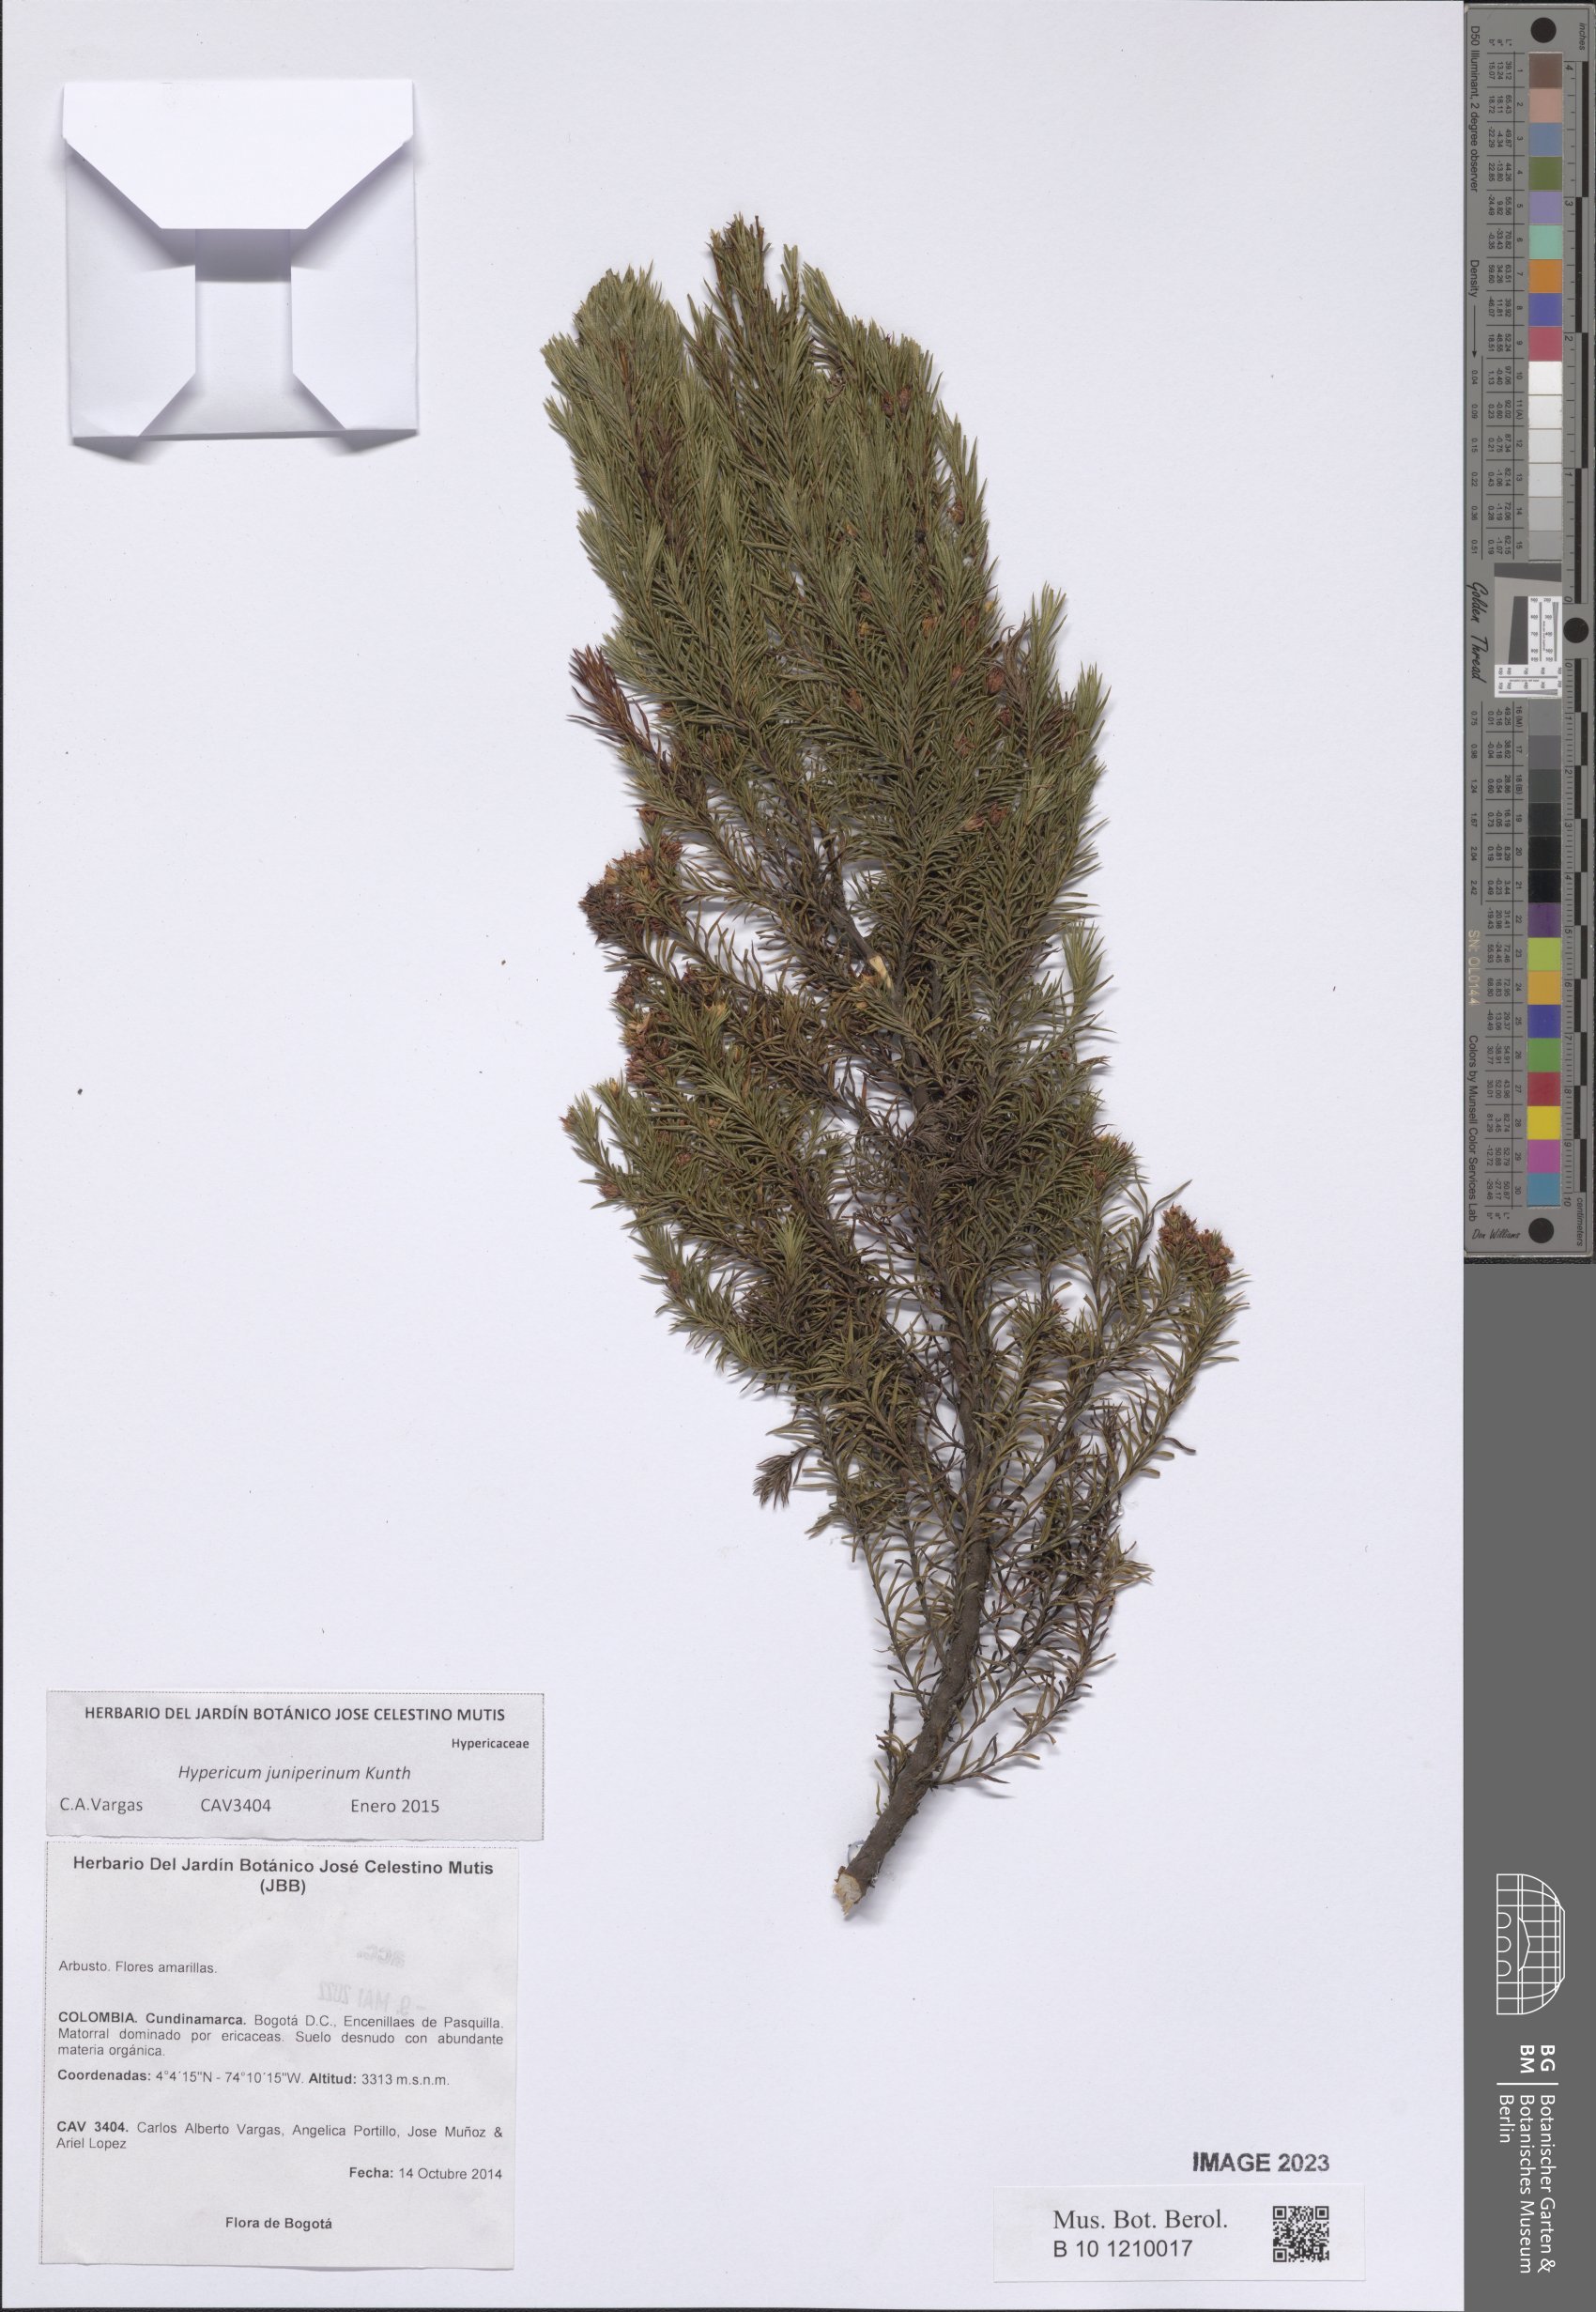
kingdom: Plantae
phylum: Tracheophyta
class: Magnoliopsida
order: Malpighiales
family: Hypericaceae
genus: Hypericum
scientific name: Hypericum juniperinum
